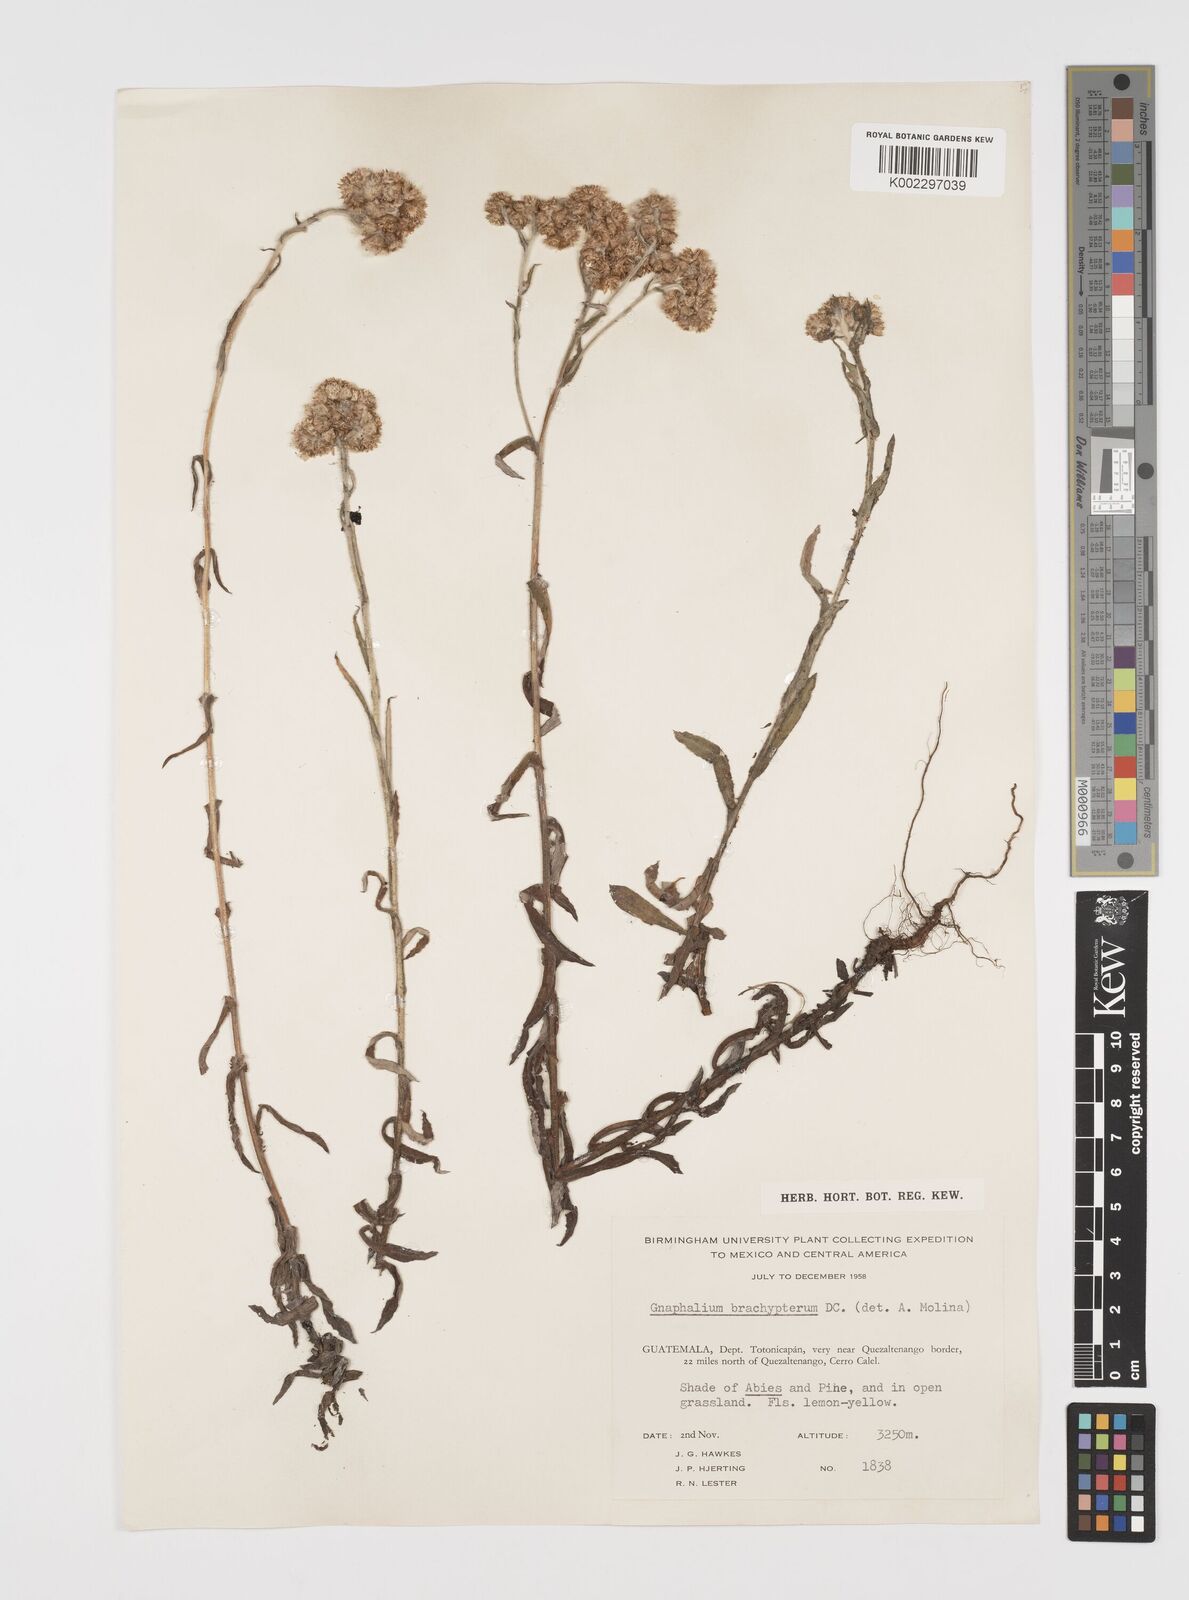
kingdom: Plantae
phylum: Tracheophyta
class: Magnoliopsida
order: Asterales
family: Asteraceae
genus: Pseudognaphalium
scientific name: Pseudognaphalium brachypterum
